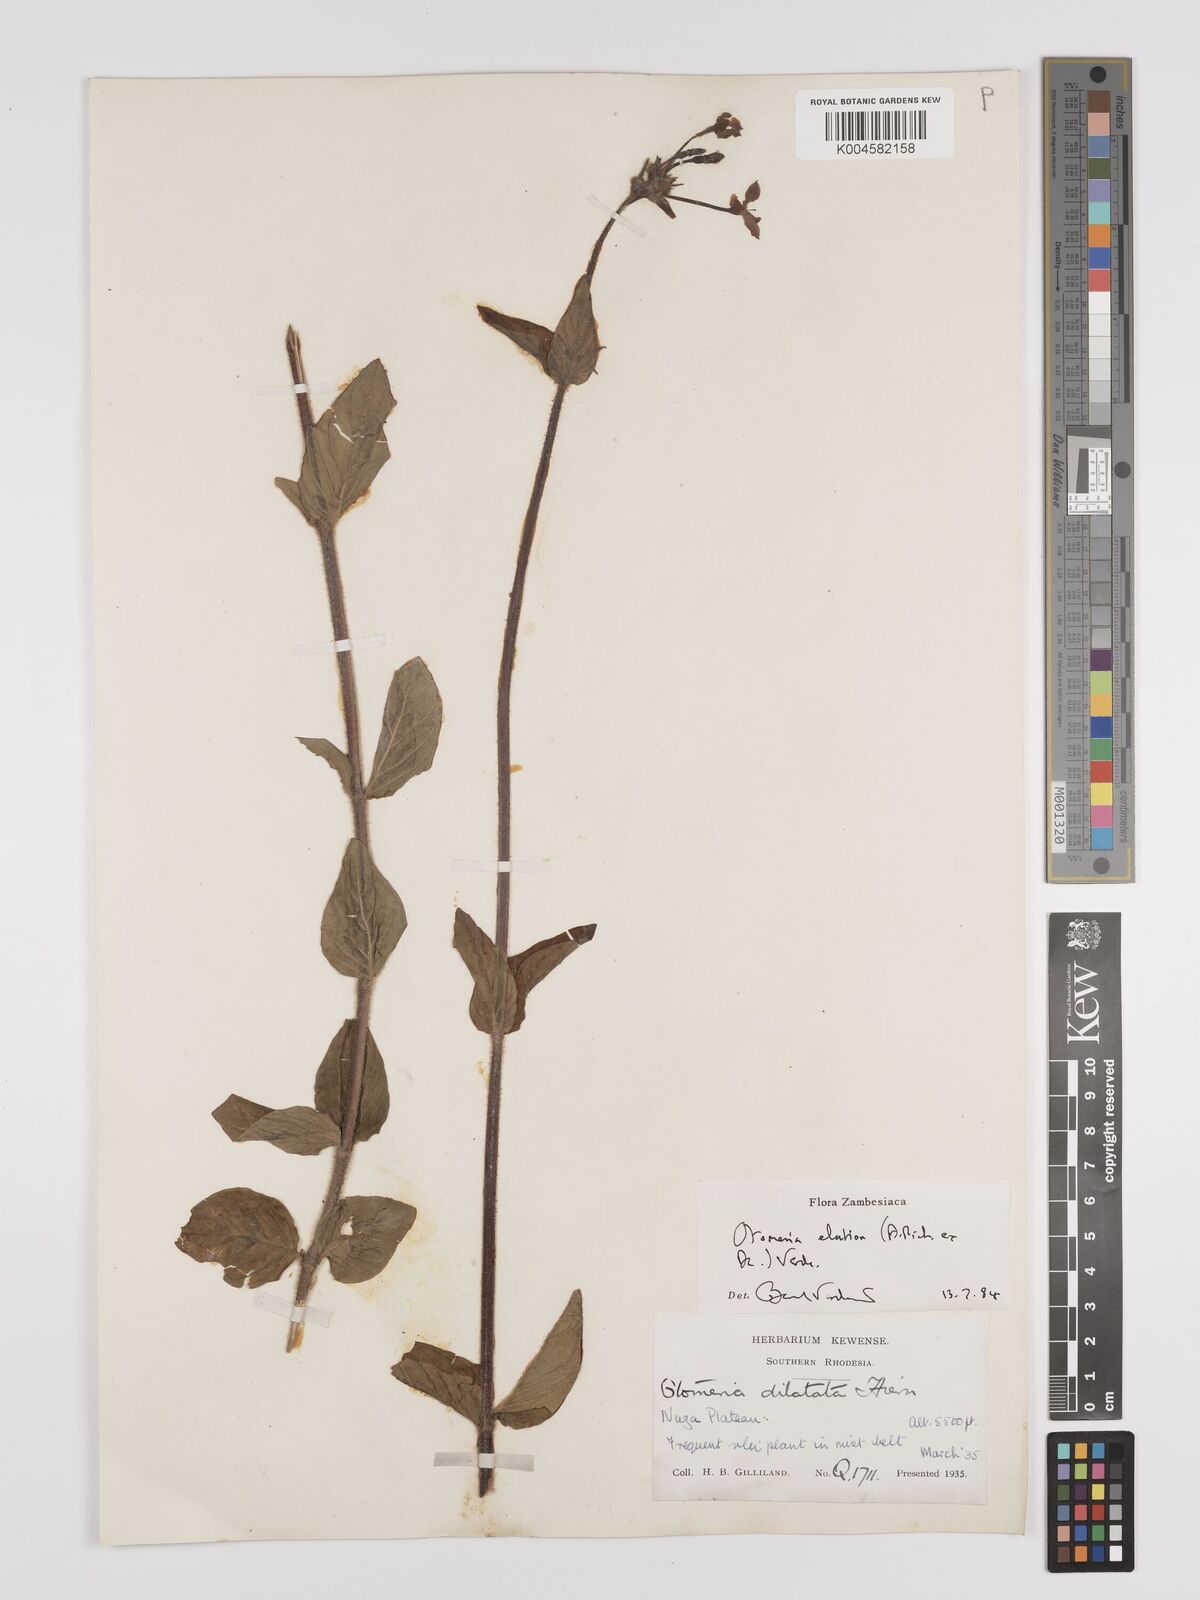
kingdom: Plantae
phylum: Tracheophyta
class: Magnoliopsida
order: Gentianales
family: Rubiaceae
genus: Otomeria
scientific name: Otomeria elatior
